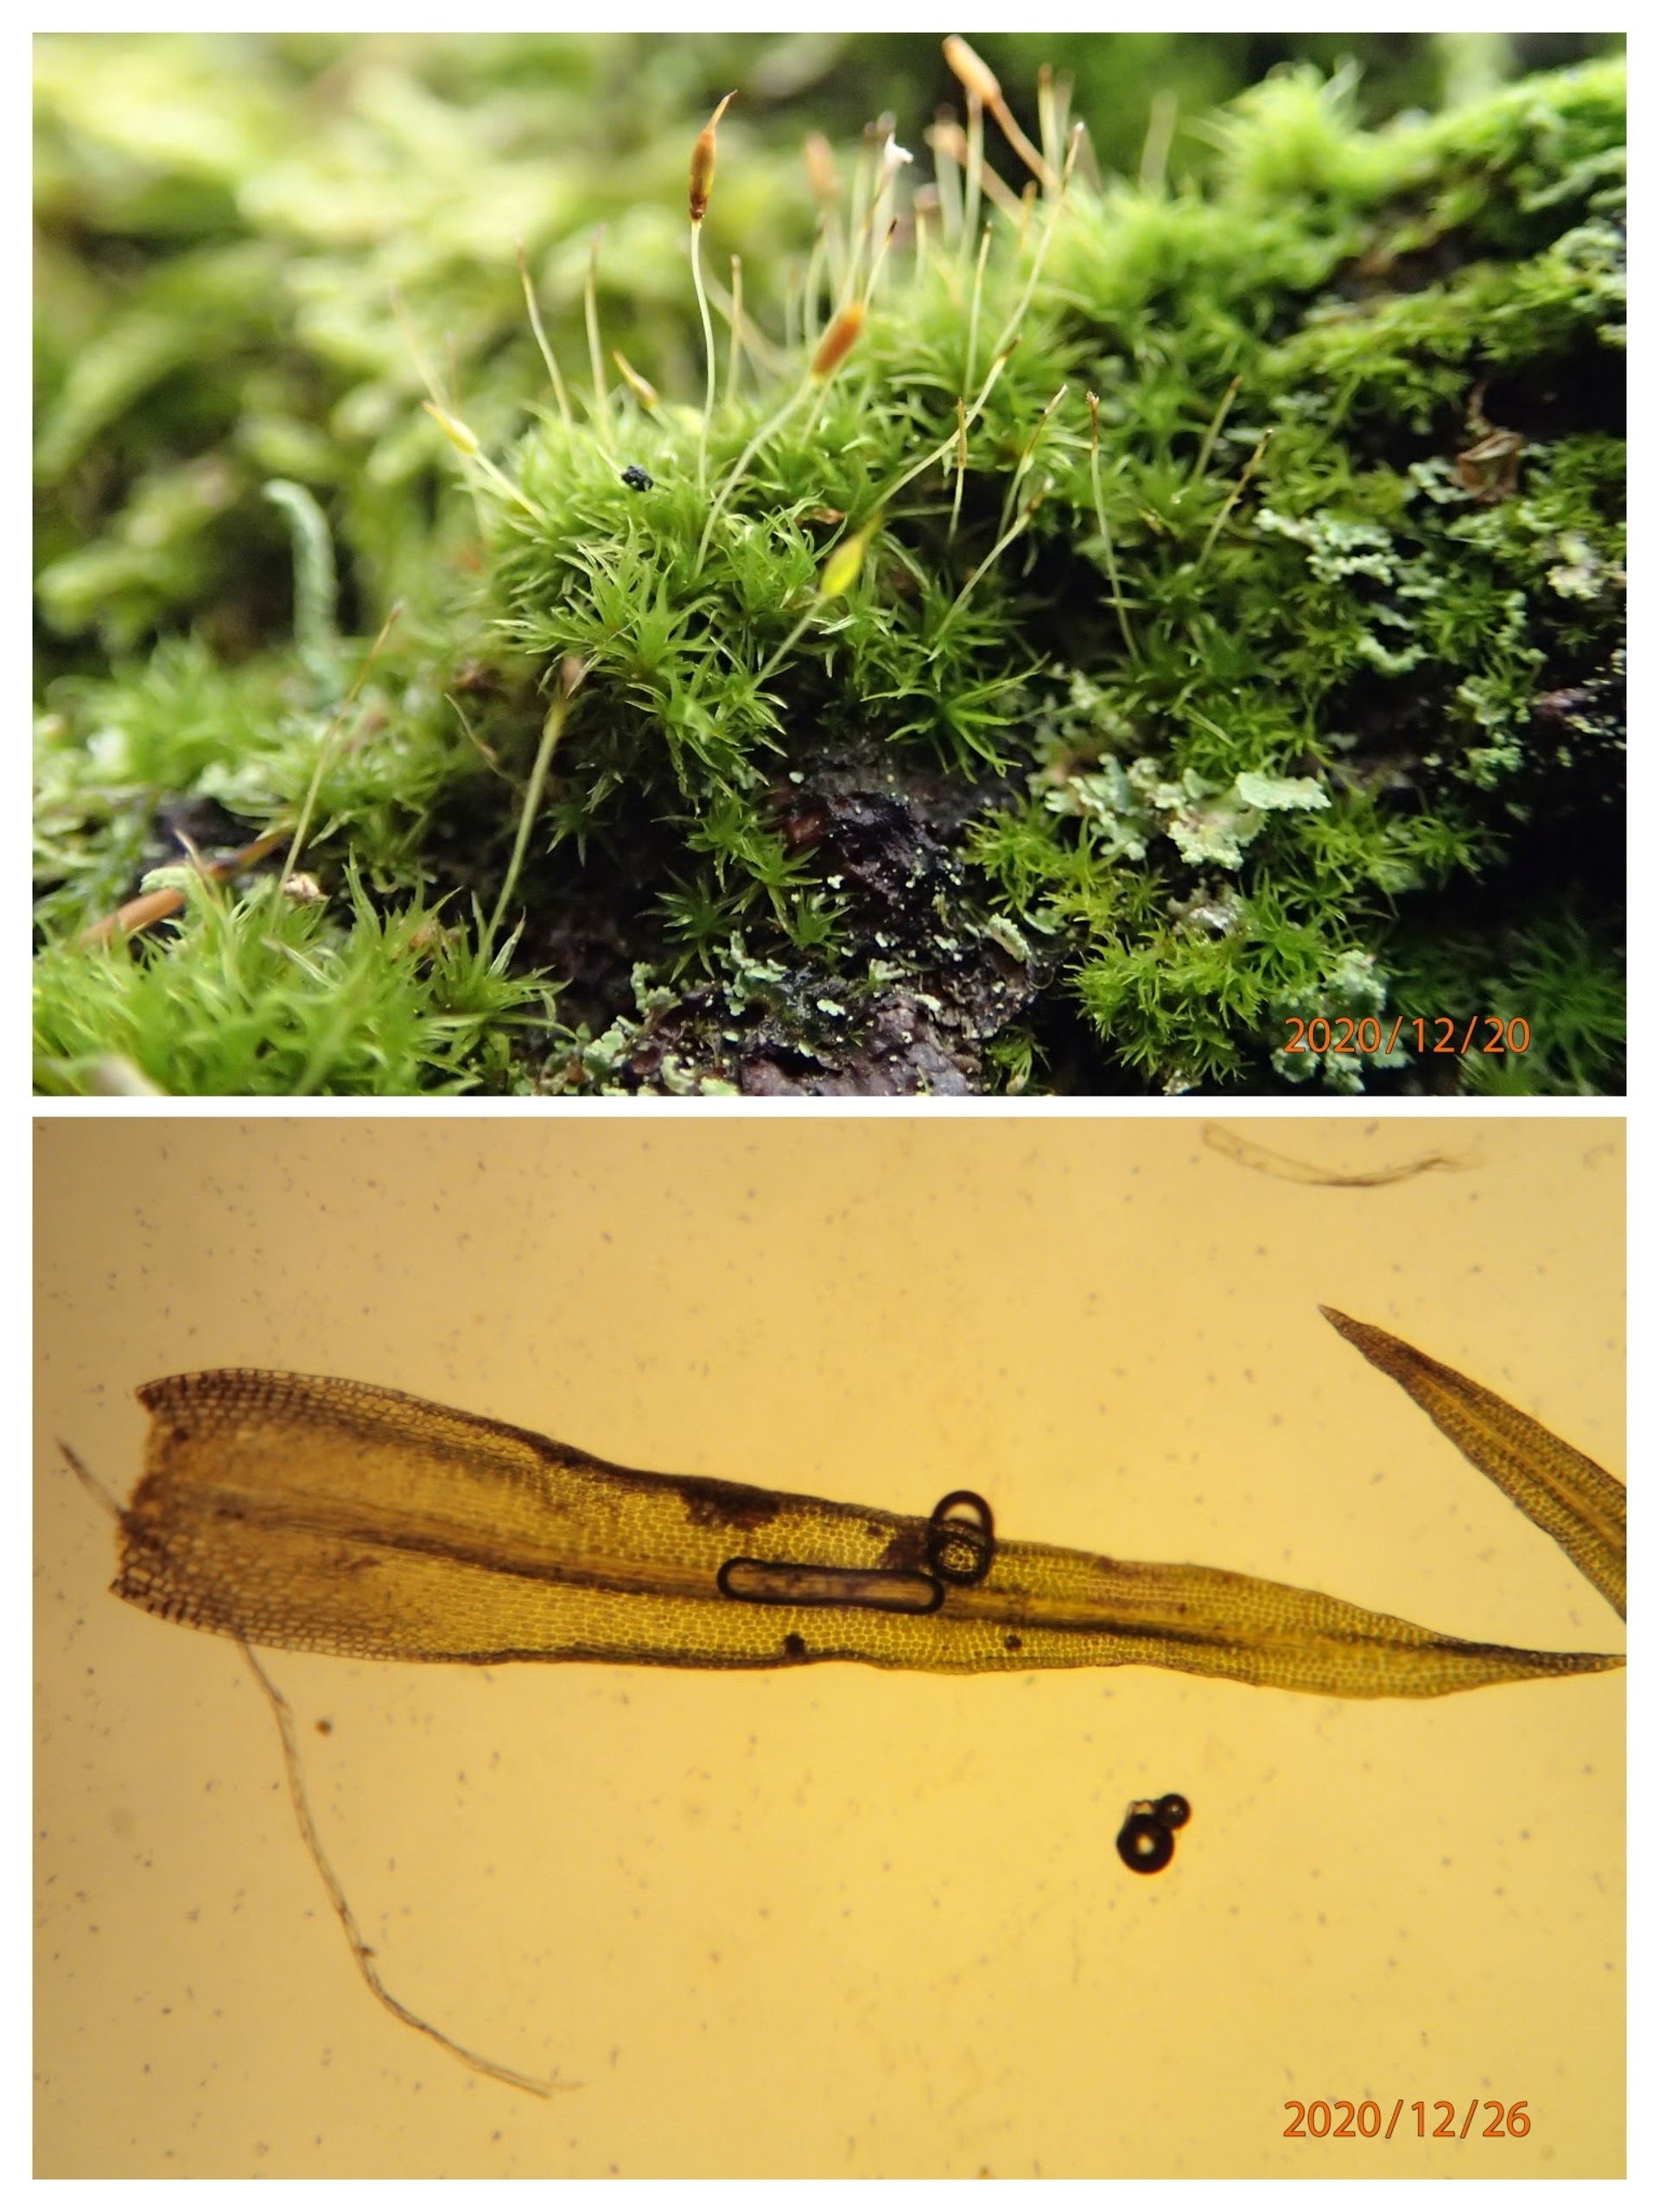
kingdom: Plantae
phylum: Bryophyta
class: Bryopsida
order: Dicranales
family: Rhabdoweisiaceae
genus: Dicranoweisia
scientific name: Dicranoweisia cirrata
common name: Almindelig krøltuemos
